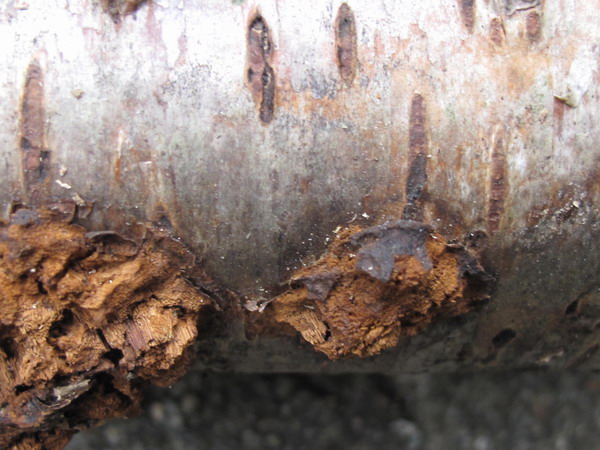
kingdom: Fungi
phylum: Basidiomycota
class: Agaricomycetes
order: Hymenochaetales
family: Hymenochaetaceae
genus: Inonotus
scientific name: Inonotus obliquus
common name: birke-spejlporesvamp
